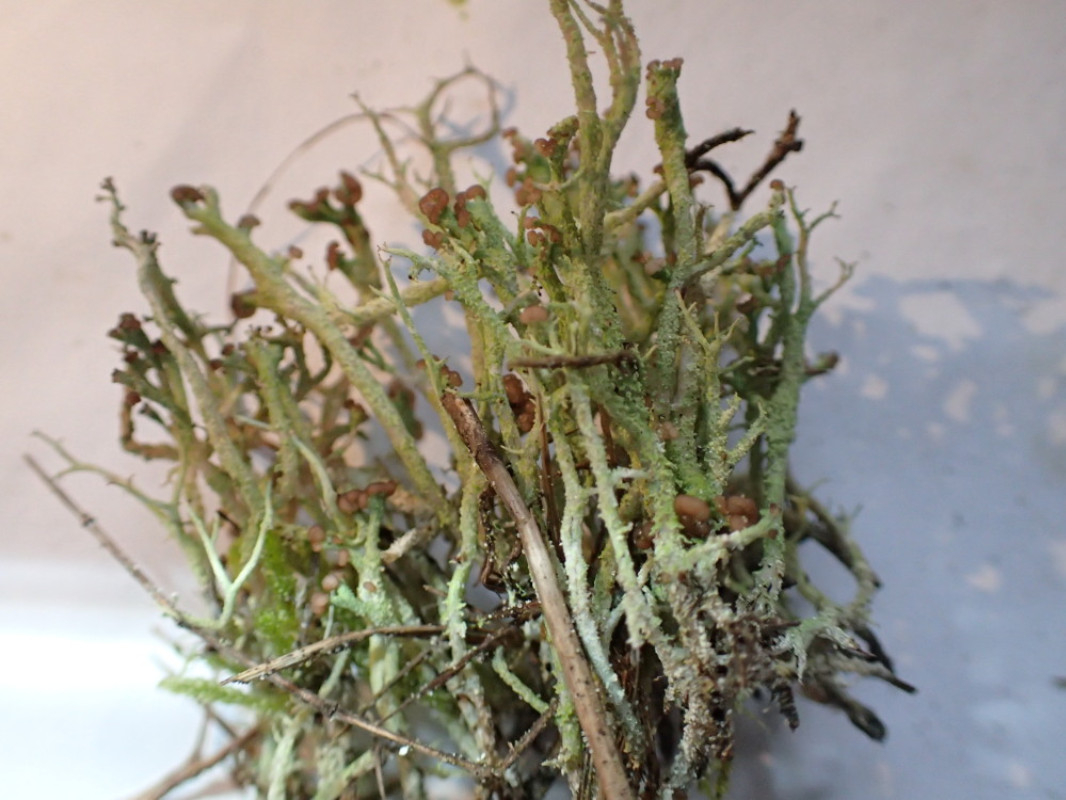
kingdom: Fungi
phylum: Ascomycota
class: Lecanoromycetes
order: Lecanorales
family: Cladoniaceae
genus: Cladonia
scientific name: Cladonia ramulosa
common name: kliddet bægerlav
